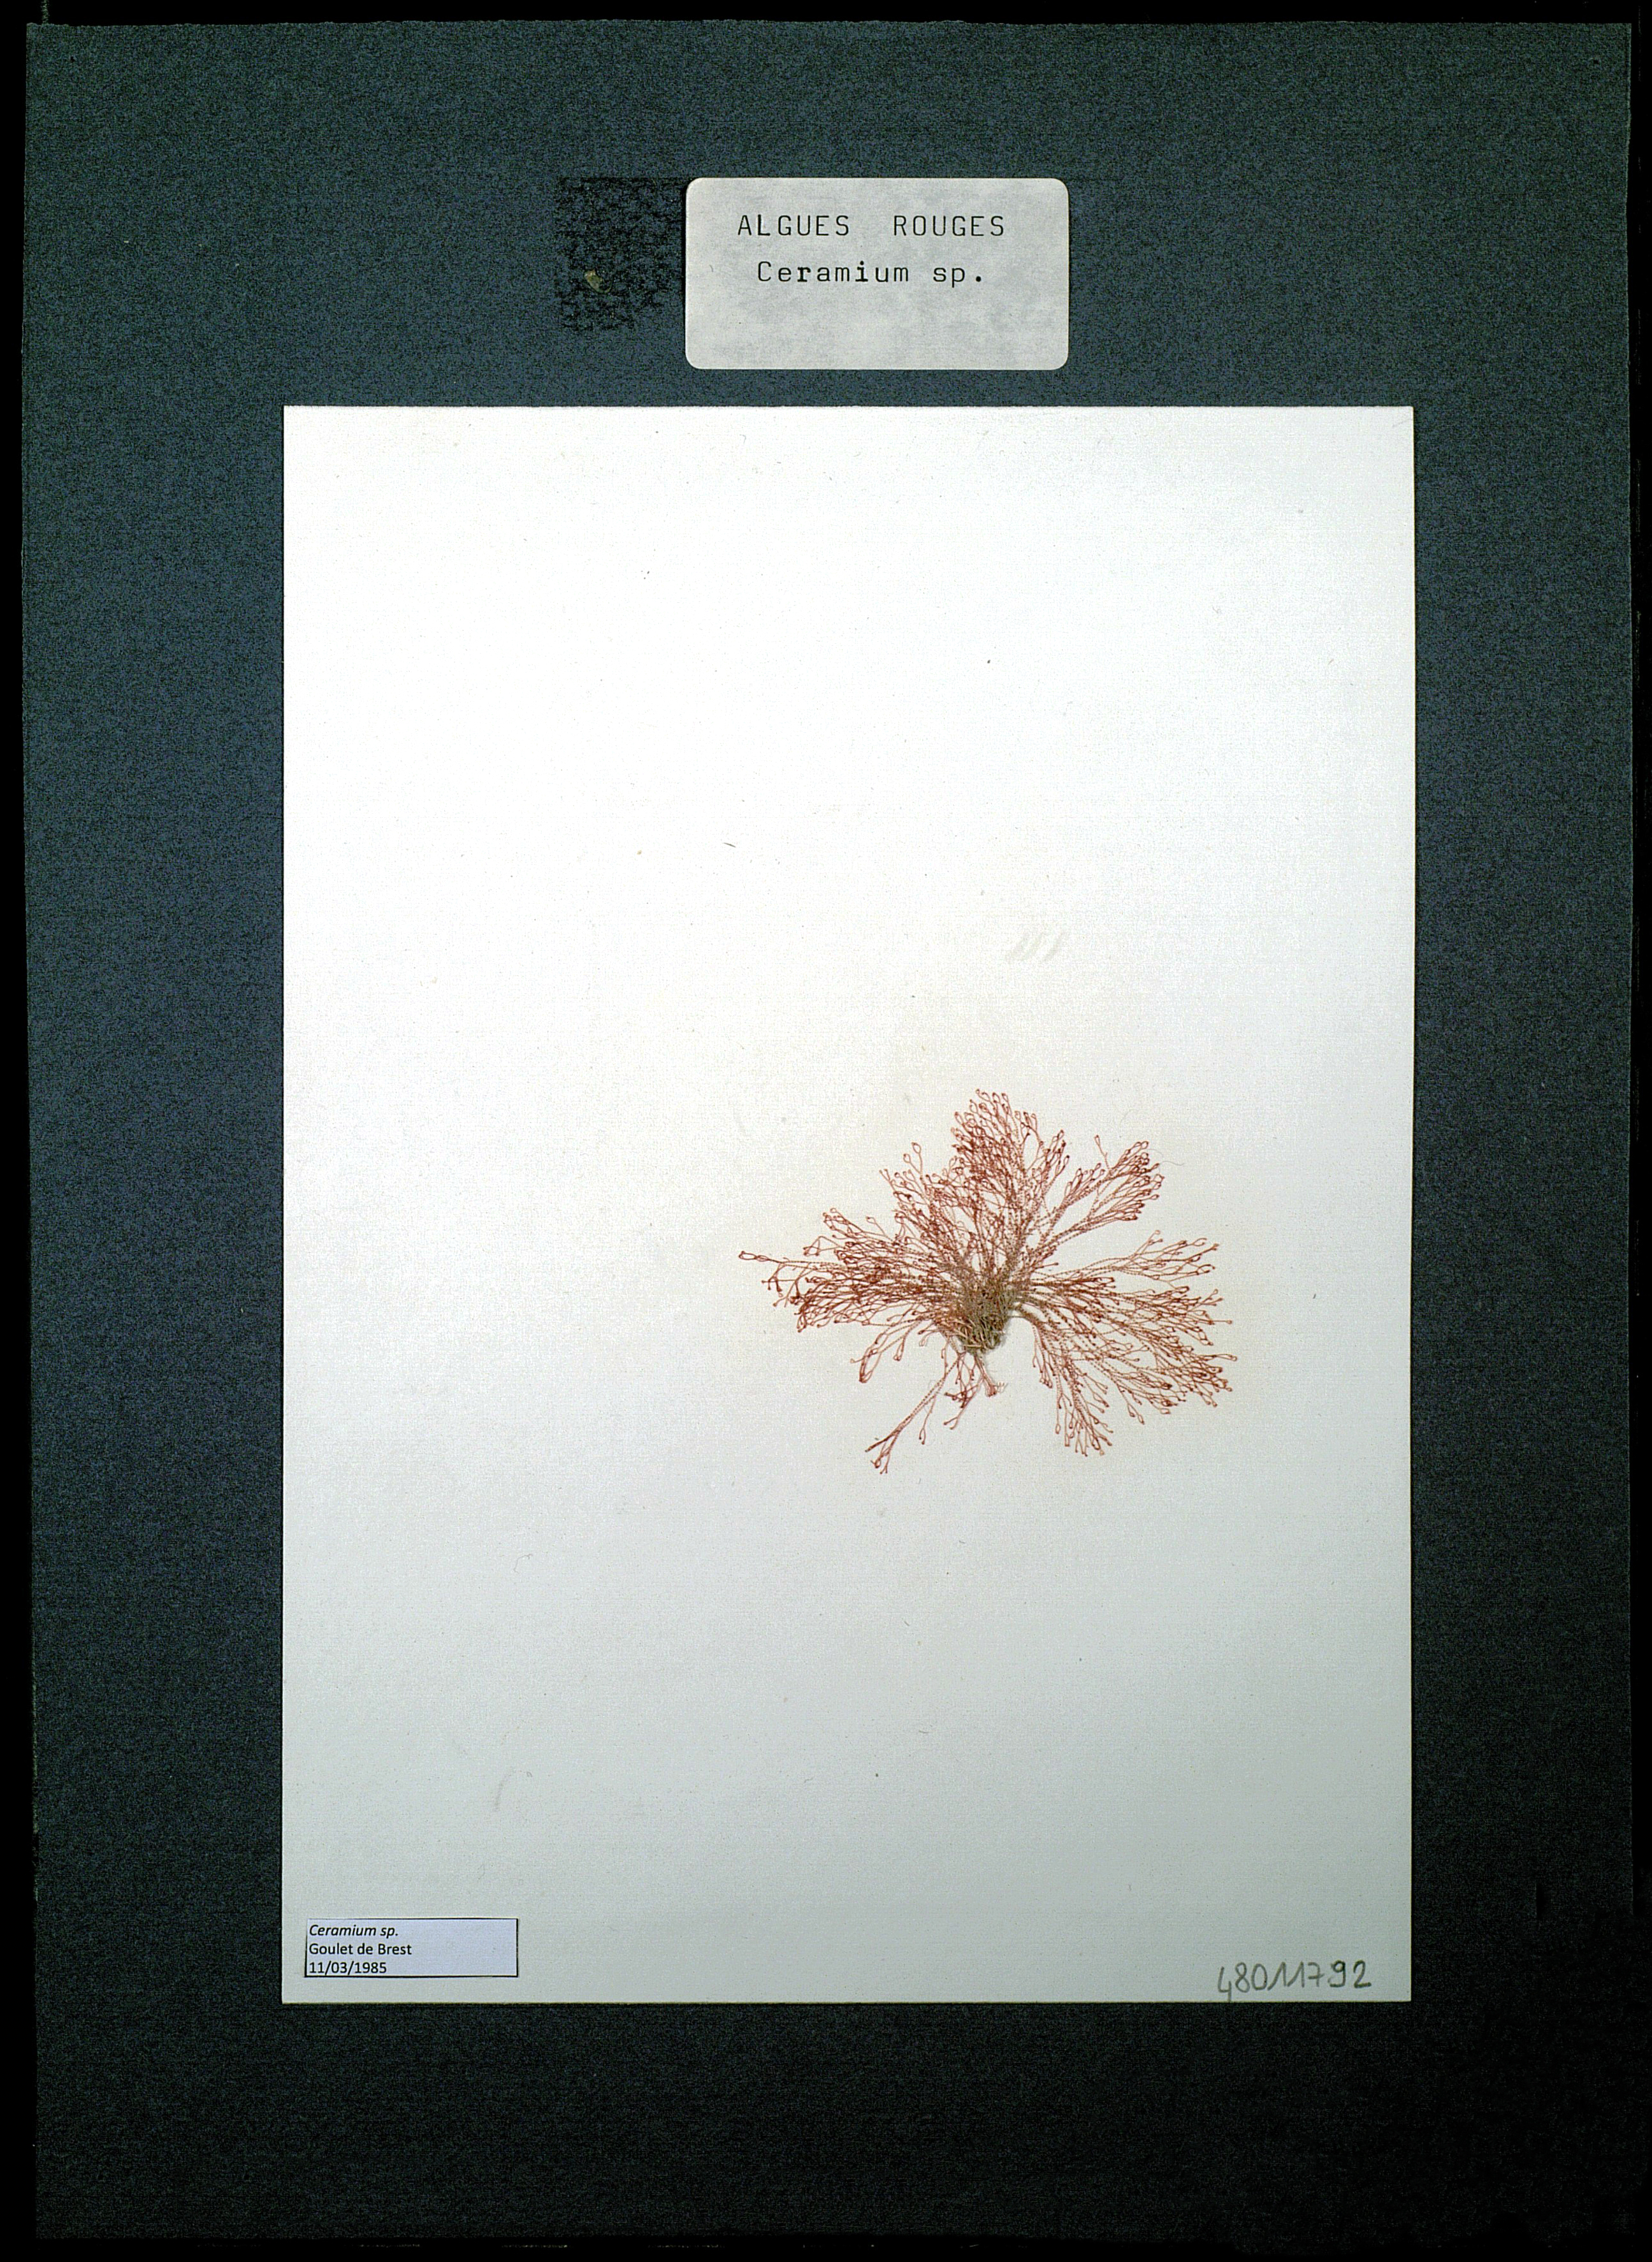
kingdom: Plantae
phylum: Rhodophyta
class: Florideophyceae
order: Ceramiales
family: Ceramiaceae
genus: Ceramium
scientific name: Ceramium
